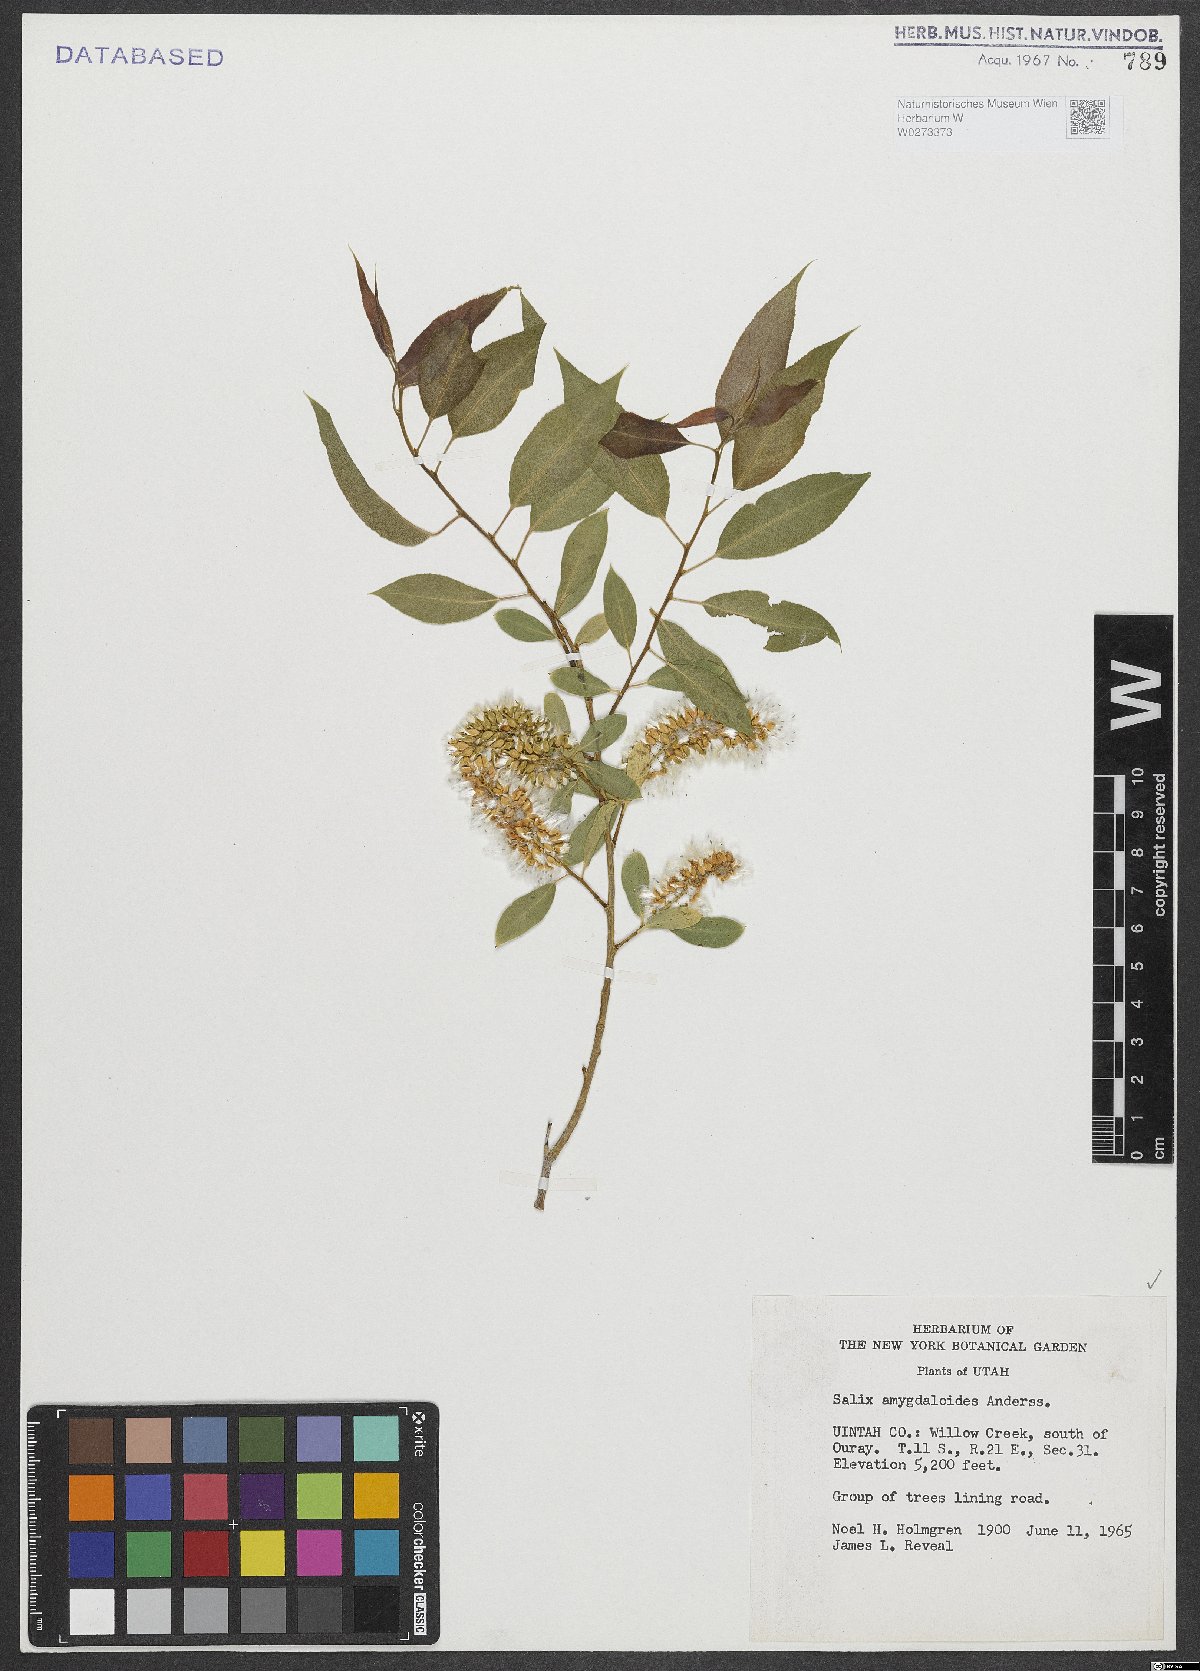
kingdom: Plantae
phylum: Tracheophyta
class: Magnoliopsida
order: Malpighiales
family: Salicaceae
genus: Salix
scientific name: Salix amygdaloides
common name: Peach leaf willow
